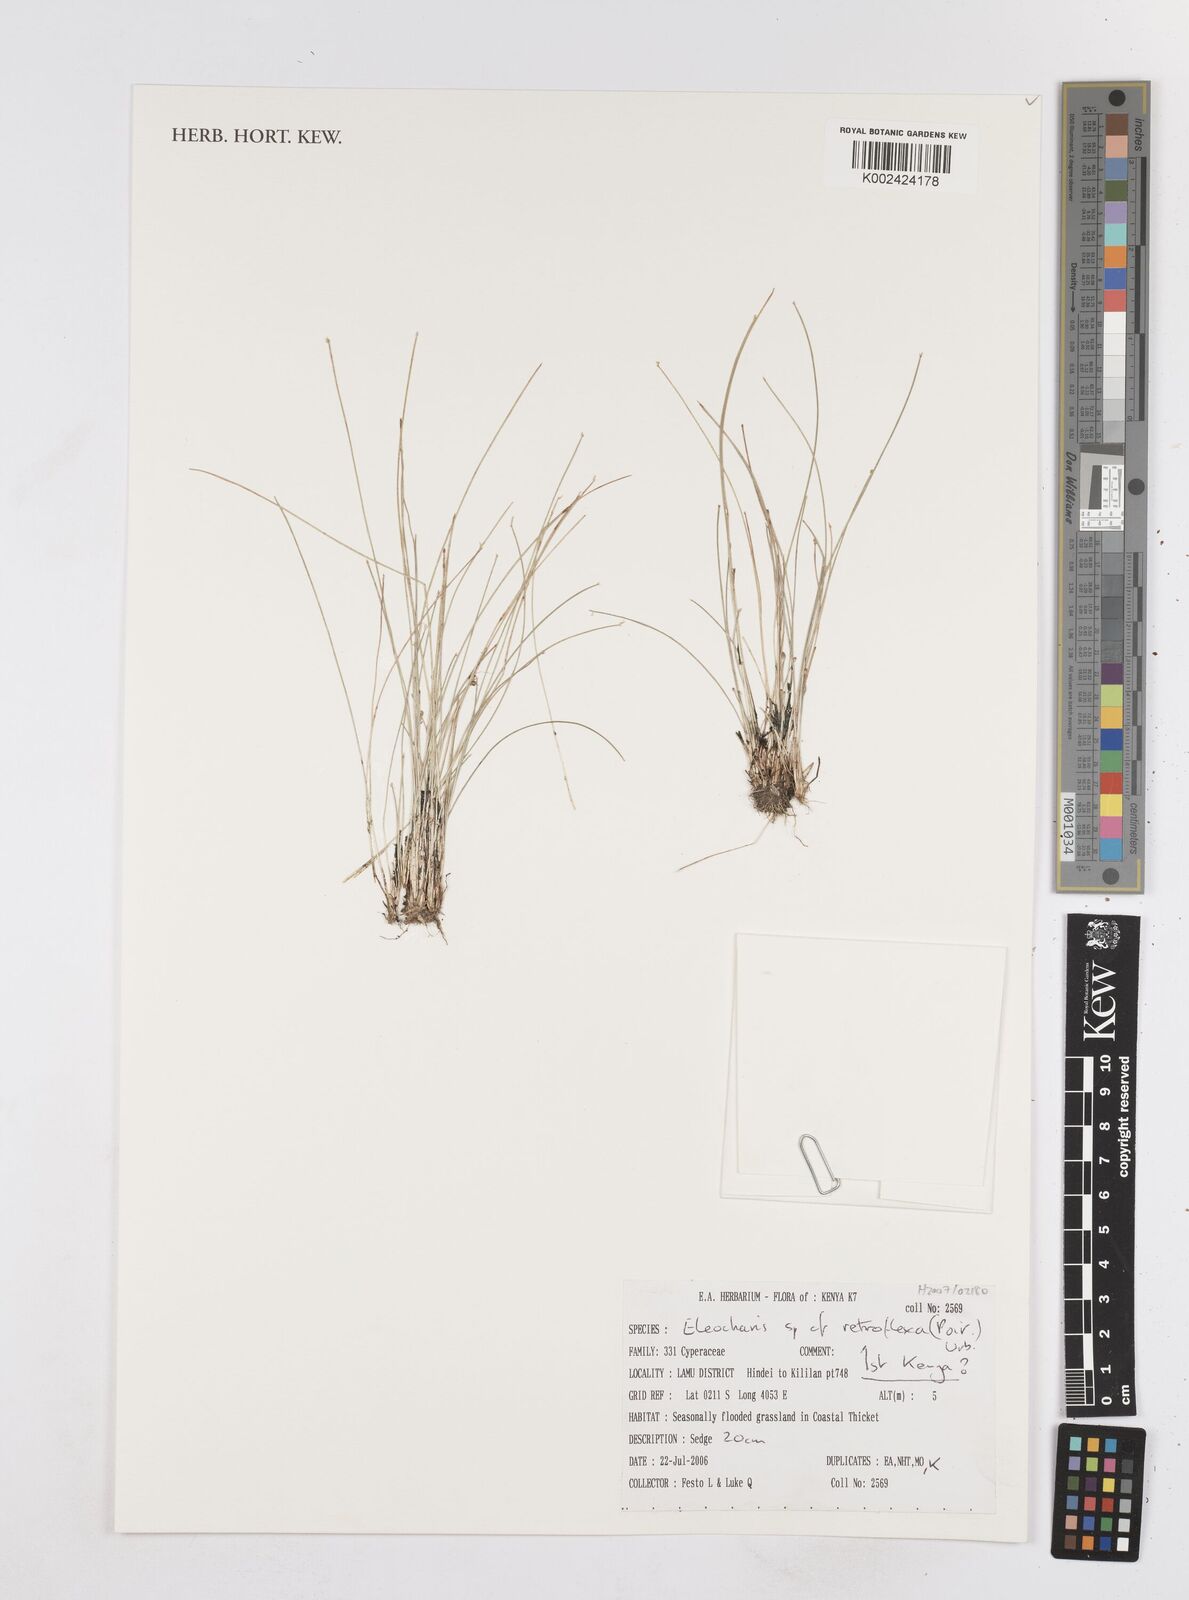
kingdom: Plantae
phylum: Tracheophyta
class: Liliopsida
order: Poales
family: Cyperaceae
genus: Eleocharis
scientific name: Eleocharis retroflexa
